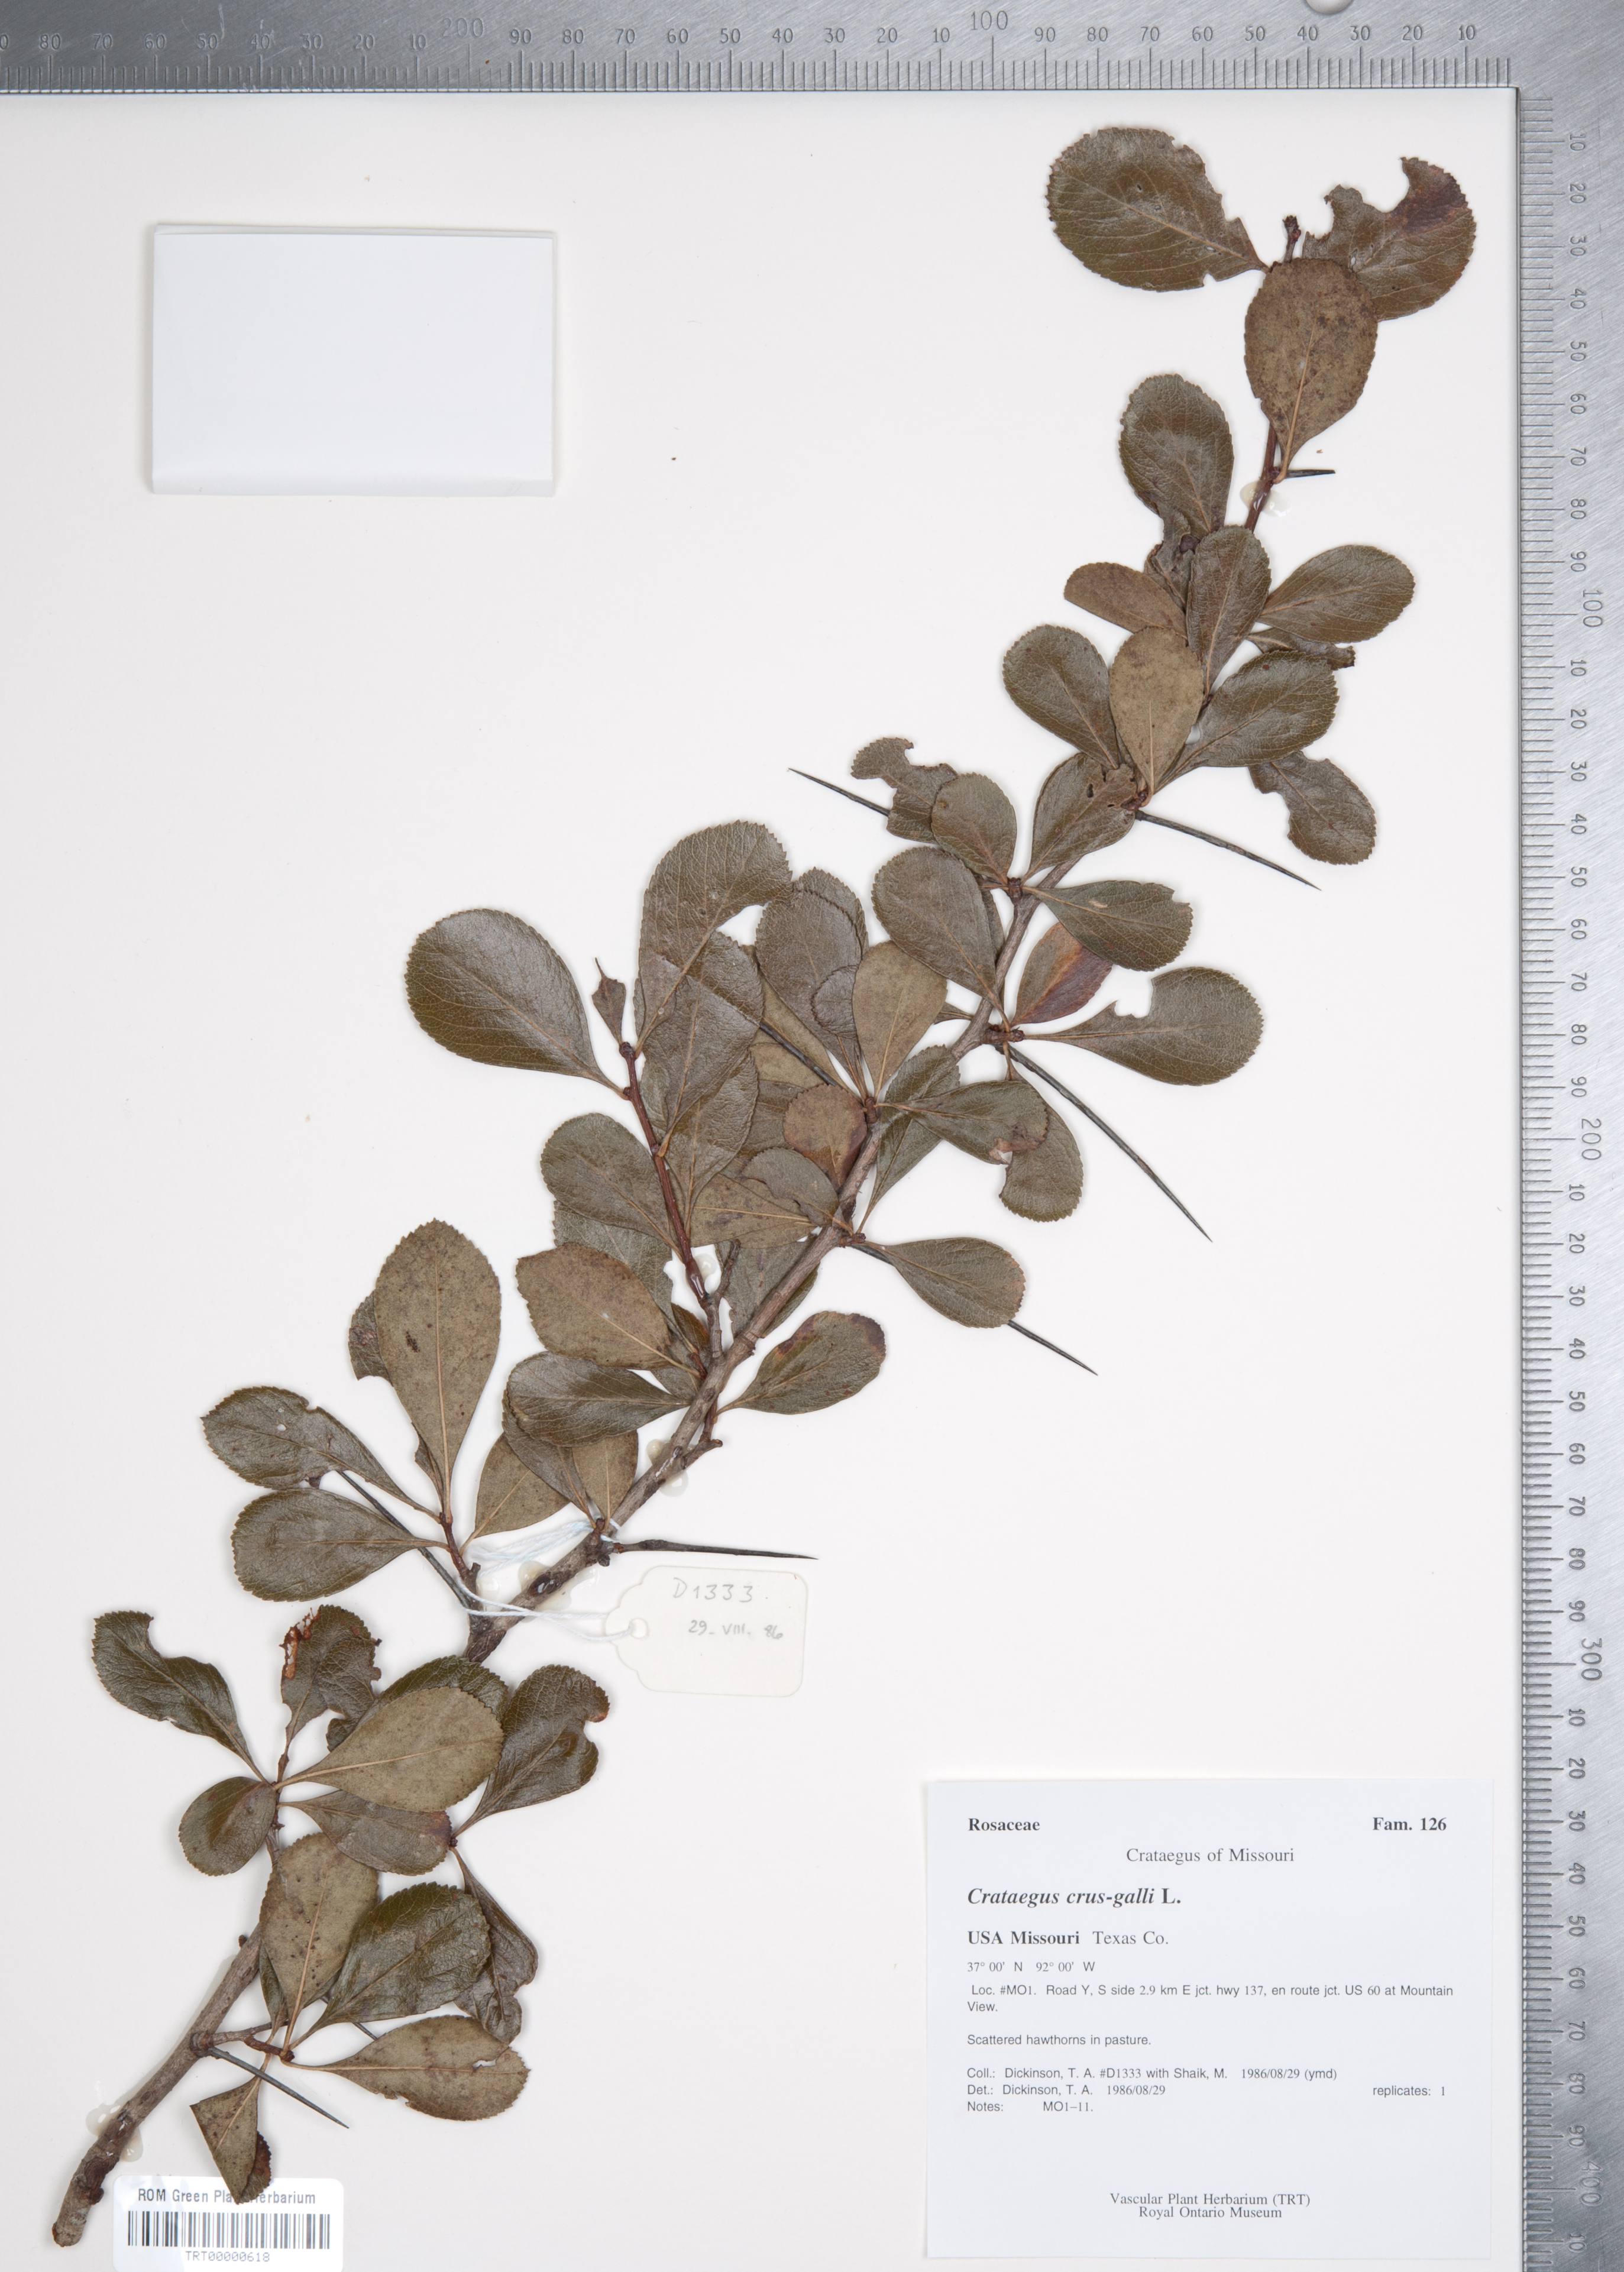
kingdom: Plantae
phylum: Tracheophyta
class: Magnoliopsida
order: Rosales
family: Rosaceae
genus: Crataegus
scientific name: Crataegus crus-galli
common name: Cockspurthorn
